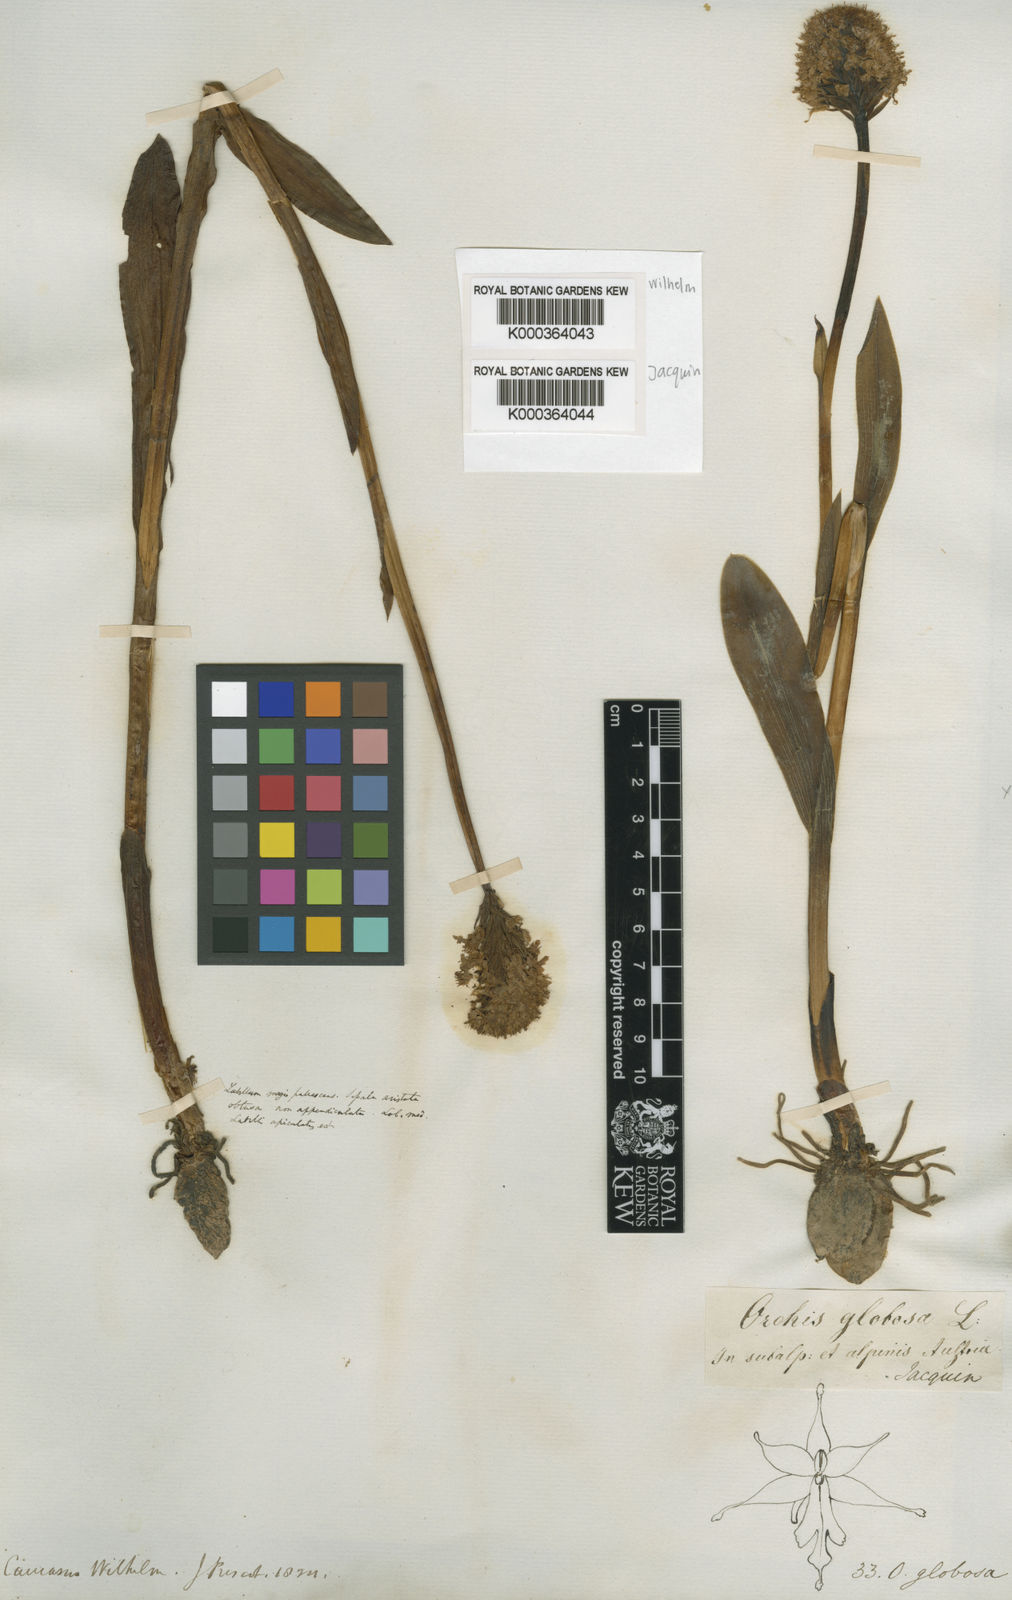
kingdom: Plantae
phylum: Tracheophyta
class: Liliopsida
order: Asparagales
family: Orchidaceae
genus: Traunsteinera
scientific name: Traunsteinera globosa
